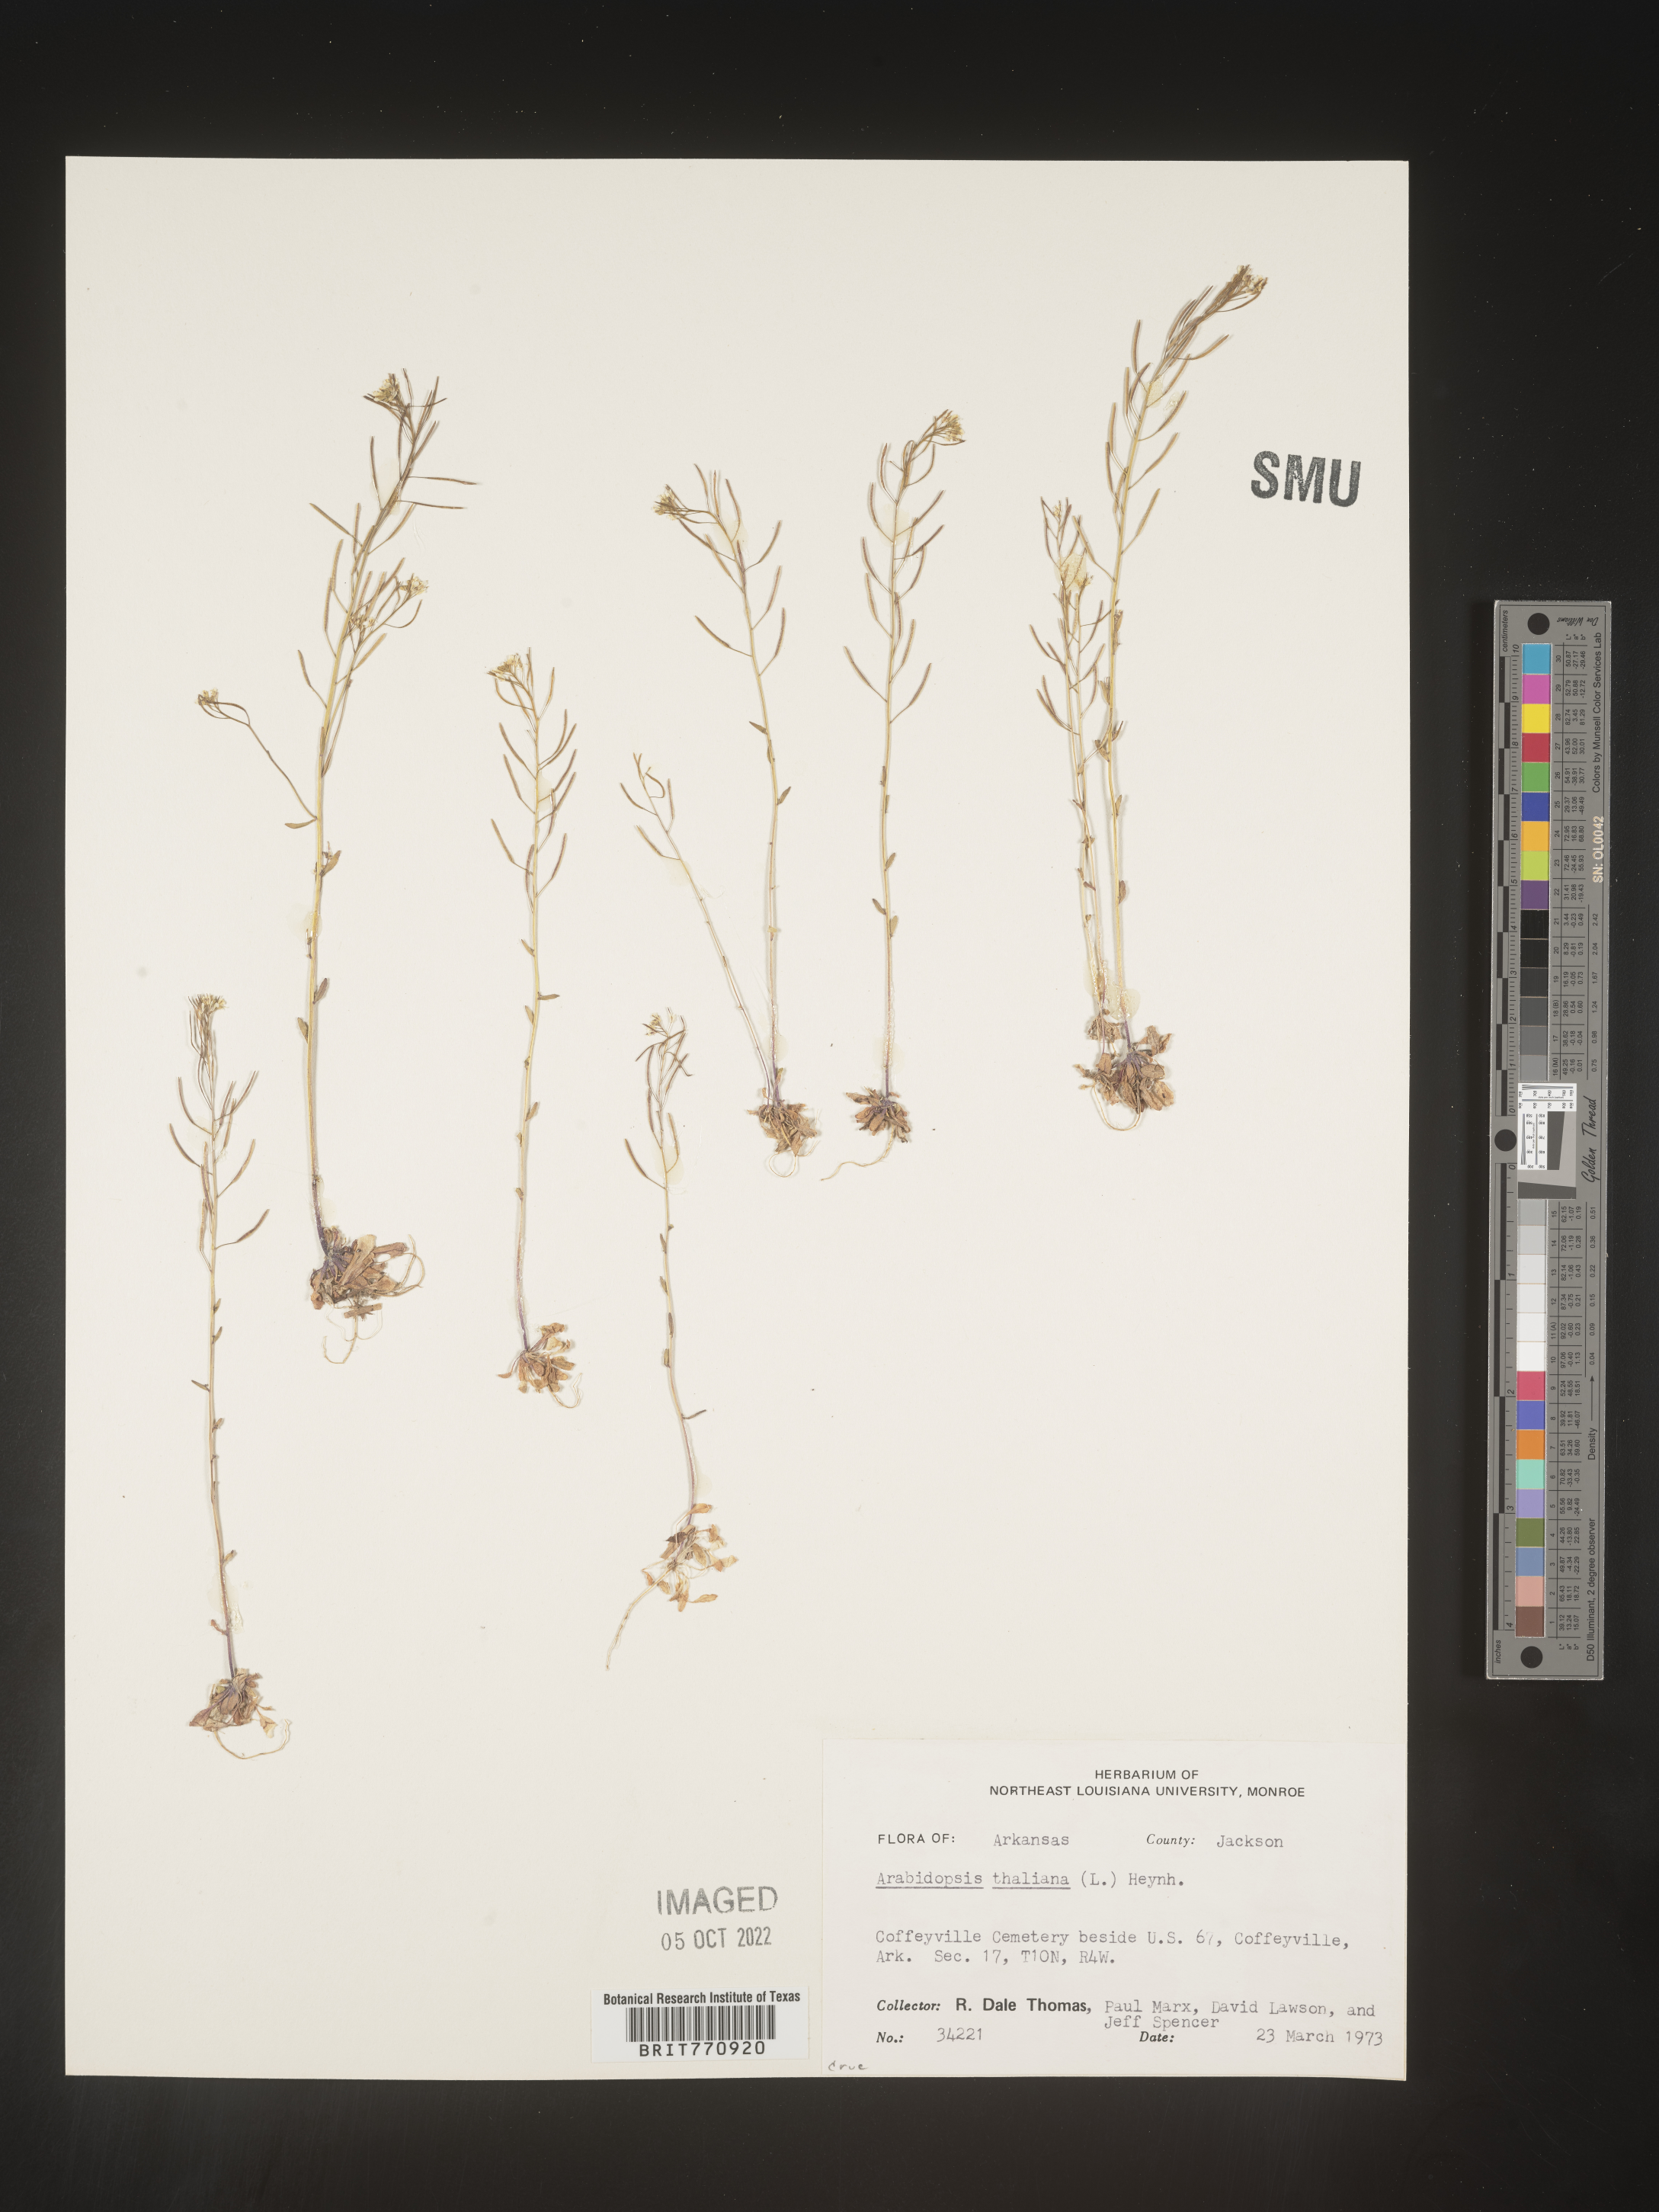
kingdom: Plantae
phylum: Tracheophyta
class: Magnoliopsida
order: Brassicales
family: Brassicaceae
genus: Arabidopsis
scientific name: Arabidopsis thaliana
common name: Thale cress
